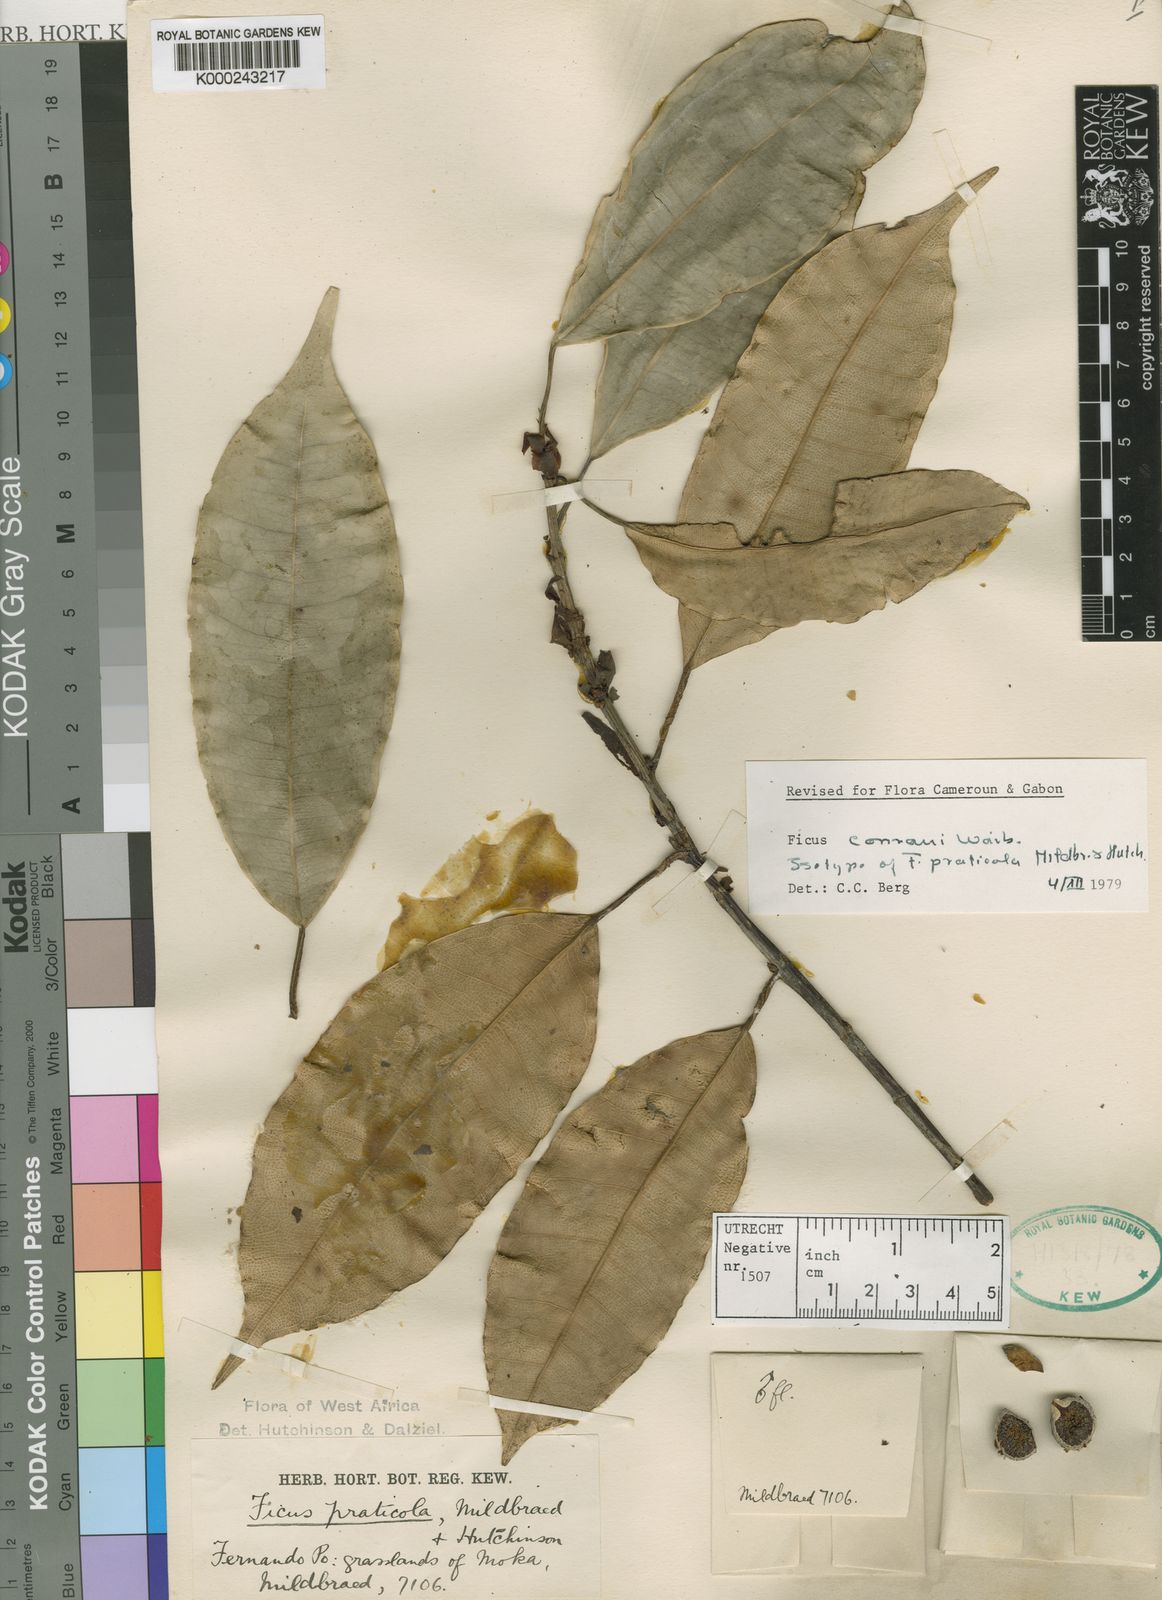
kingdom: Plantae
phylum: Tracheophyta
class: Magnoliopsida
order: Rosales
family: Moraceae
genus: Ficus
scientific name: Ficus conraui
